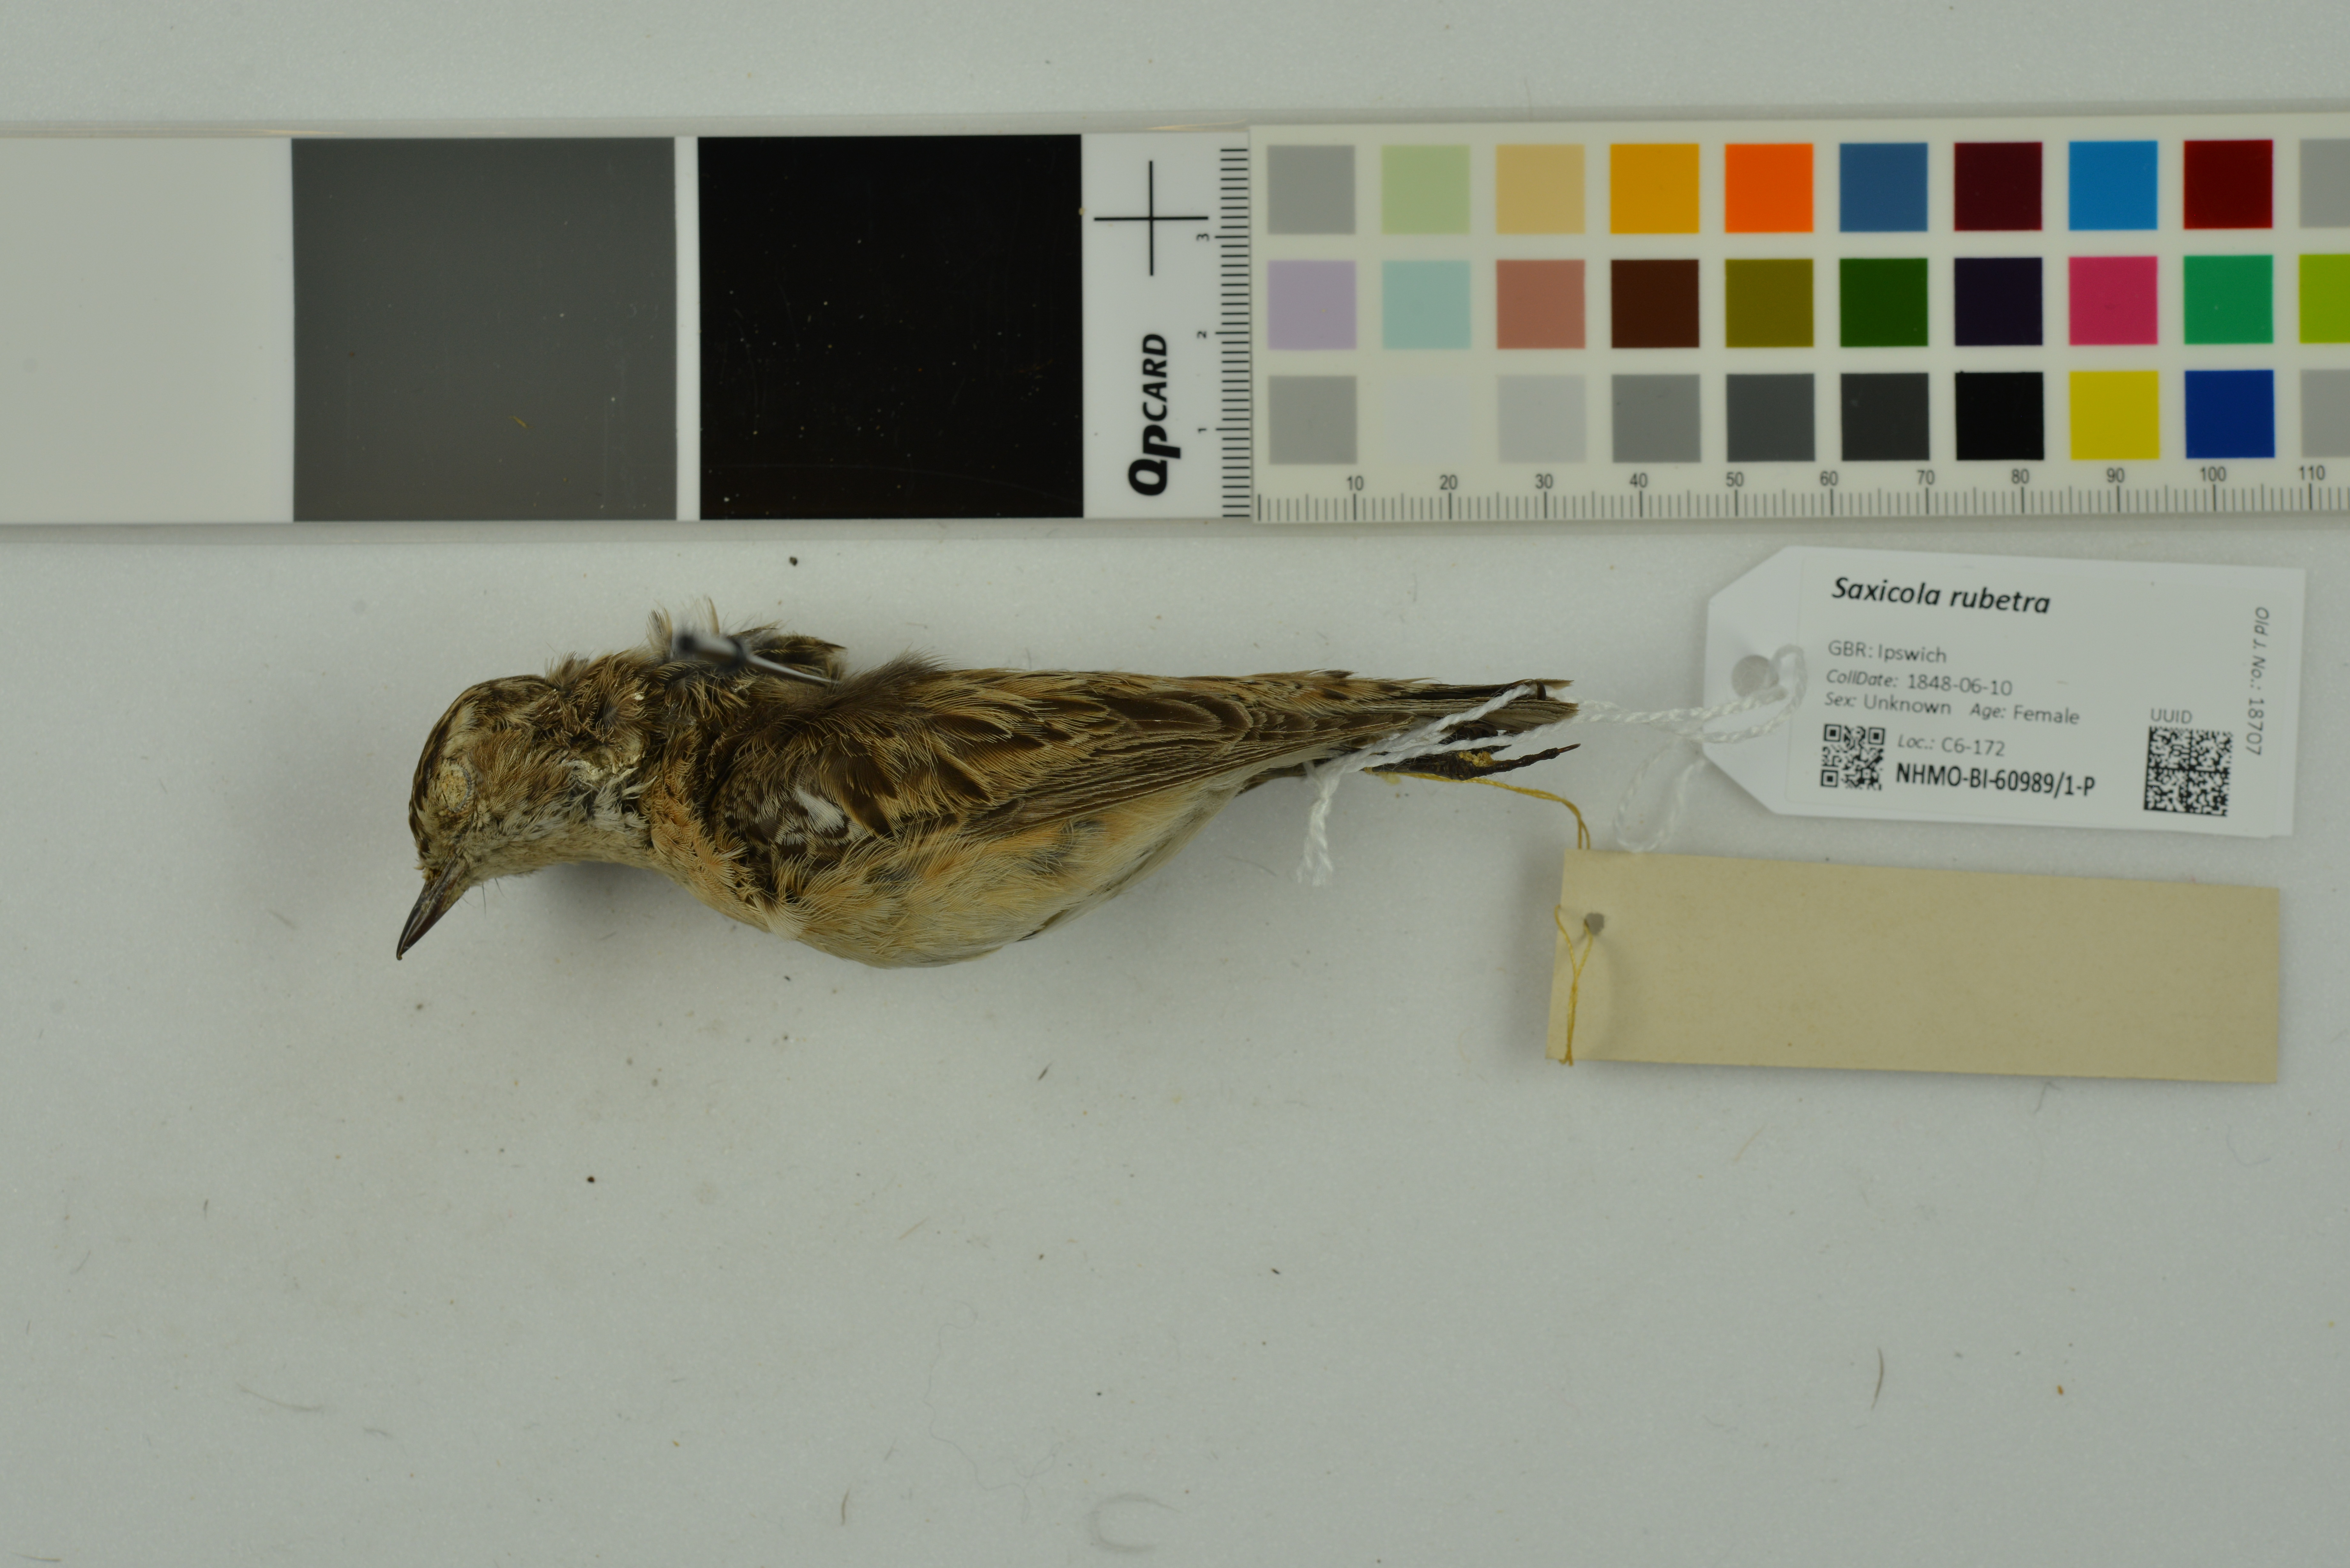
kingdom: Animalia
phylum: Chordata
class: Aves
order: Passeriformes
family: Muscicapidae
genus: Saxicola
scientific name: Saxicola rubetra
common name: Whinchat
